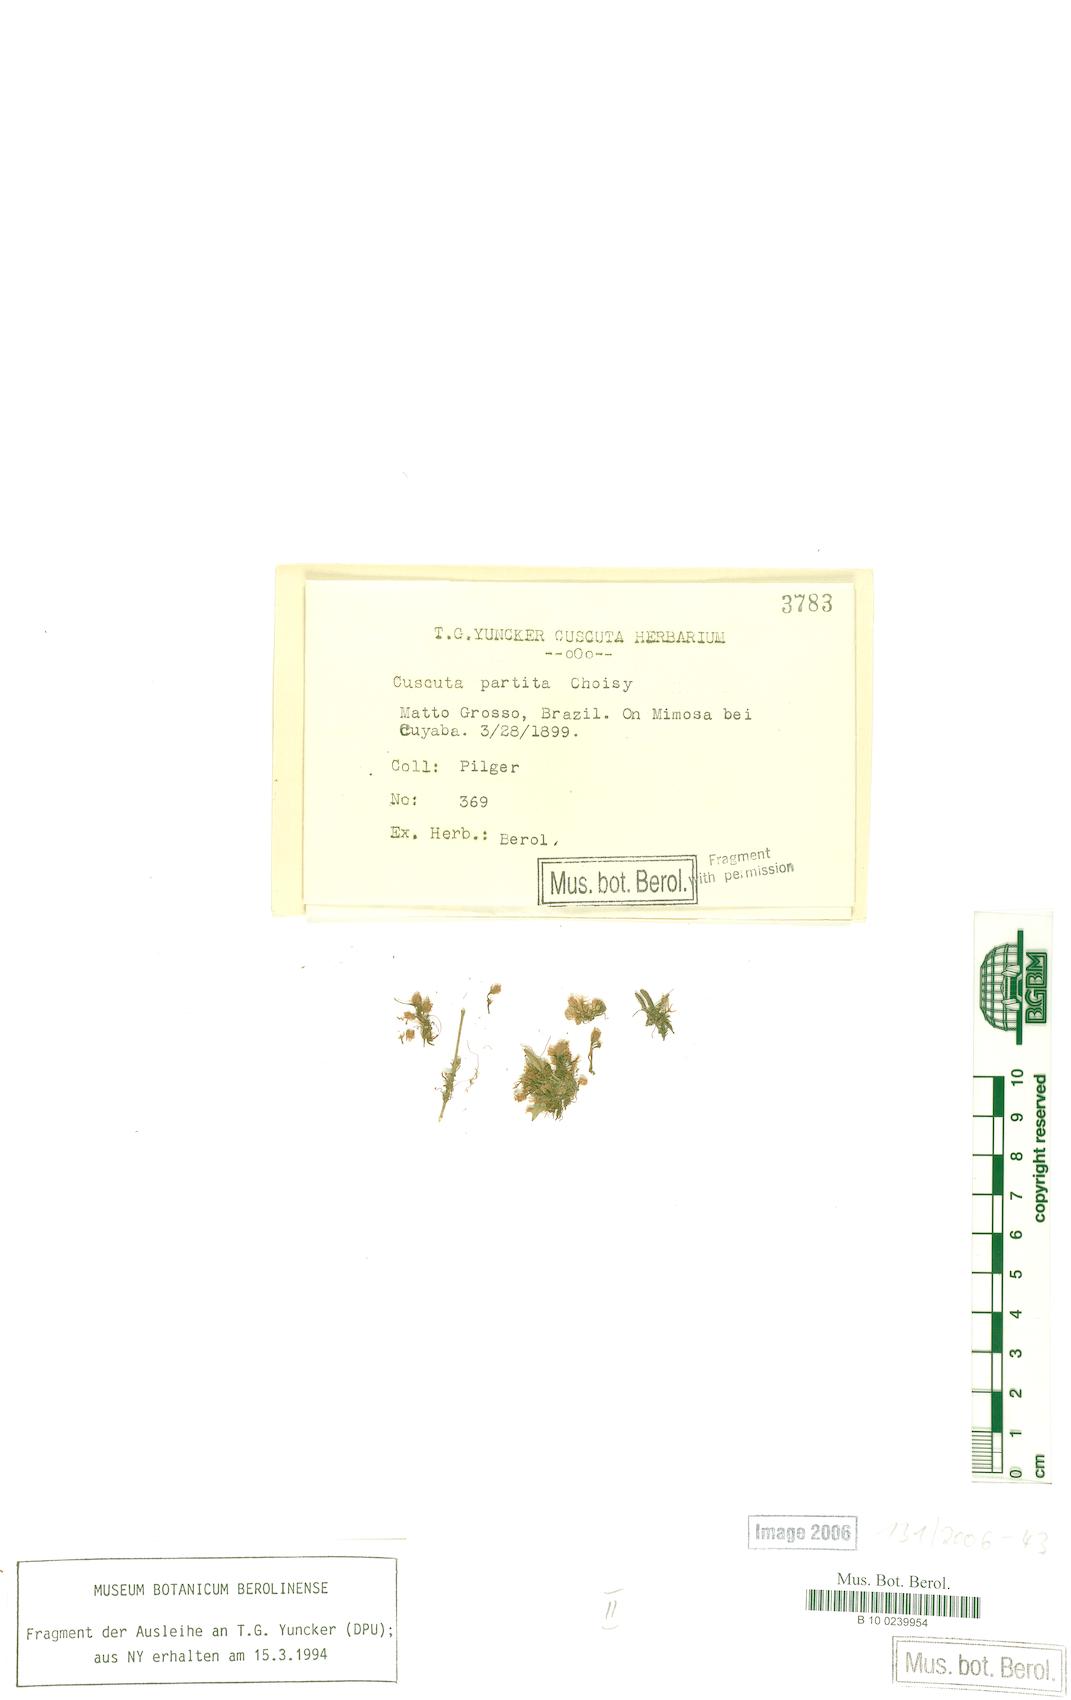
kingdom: Plantae
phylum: Tracheophyta
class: Magnoliopsida
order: Solanales
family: Convolvulaceae
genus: Cuscuta
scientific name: Cuscuta partita
